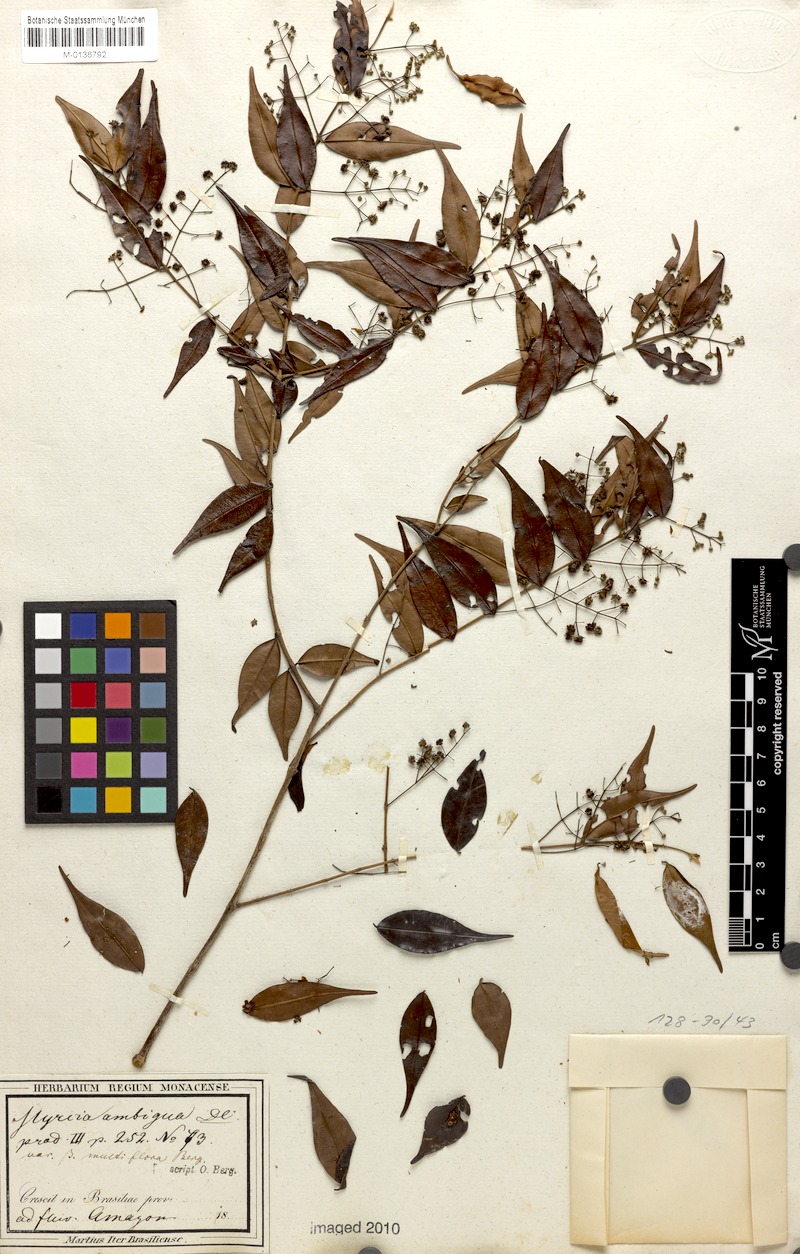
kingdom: Plantae
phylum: Tracheophyta
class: Magnoliopsida
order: Myrtales
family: Myrtaceae
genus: Myrcia
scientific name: Myrcia sylvatica
